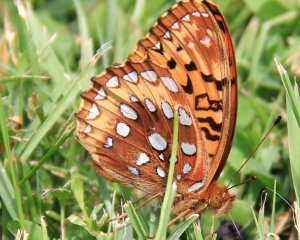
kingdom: Animalia
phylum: Arthropoda
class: Insecta
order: Lepidoptera
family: Nymphalidae
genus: Speyeria
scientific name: Speyeria cybele
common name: Great Spangled Fritillary
